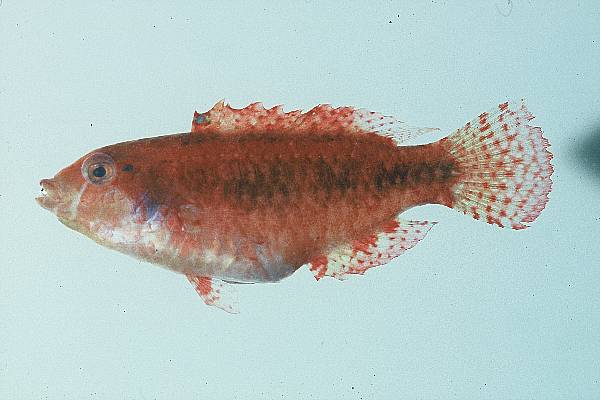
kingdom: Animalia
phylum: Chordata
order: Perciformes
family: Labridae
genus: Cheilinus
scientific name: Cheilinus
